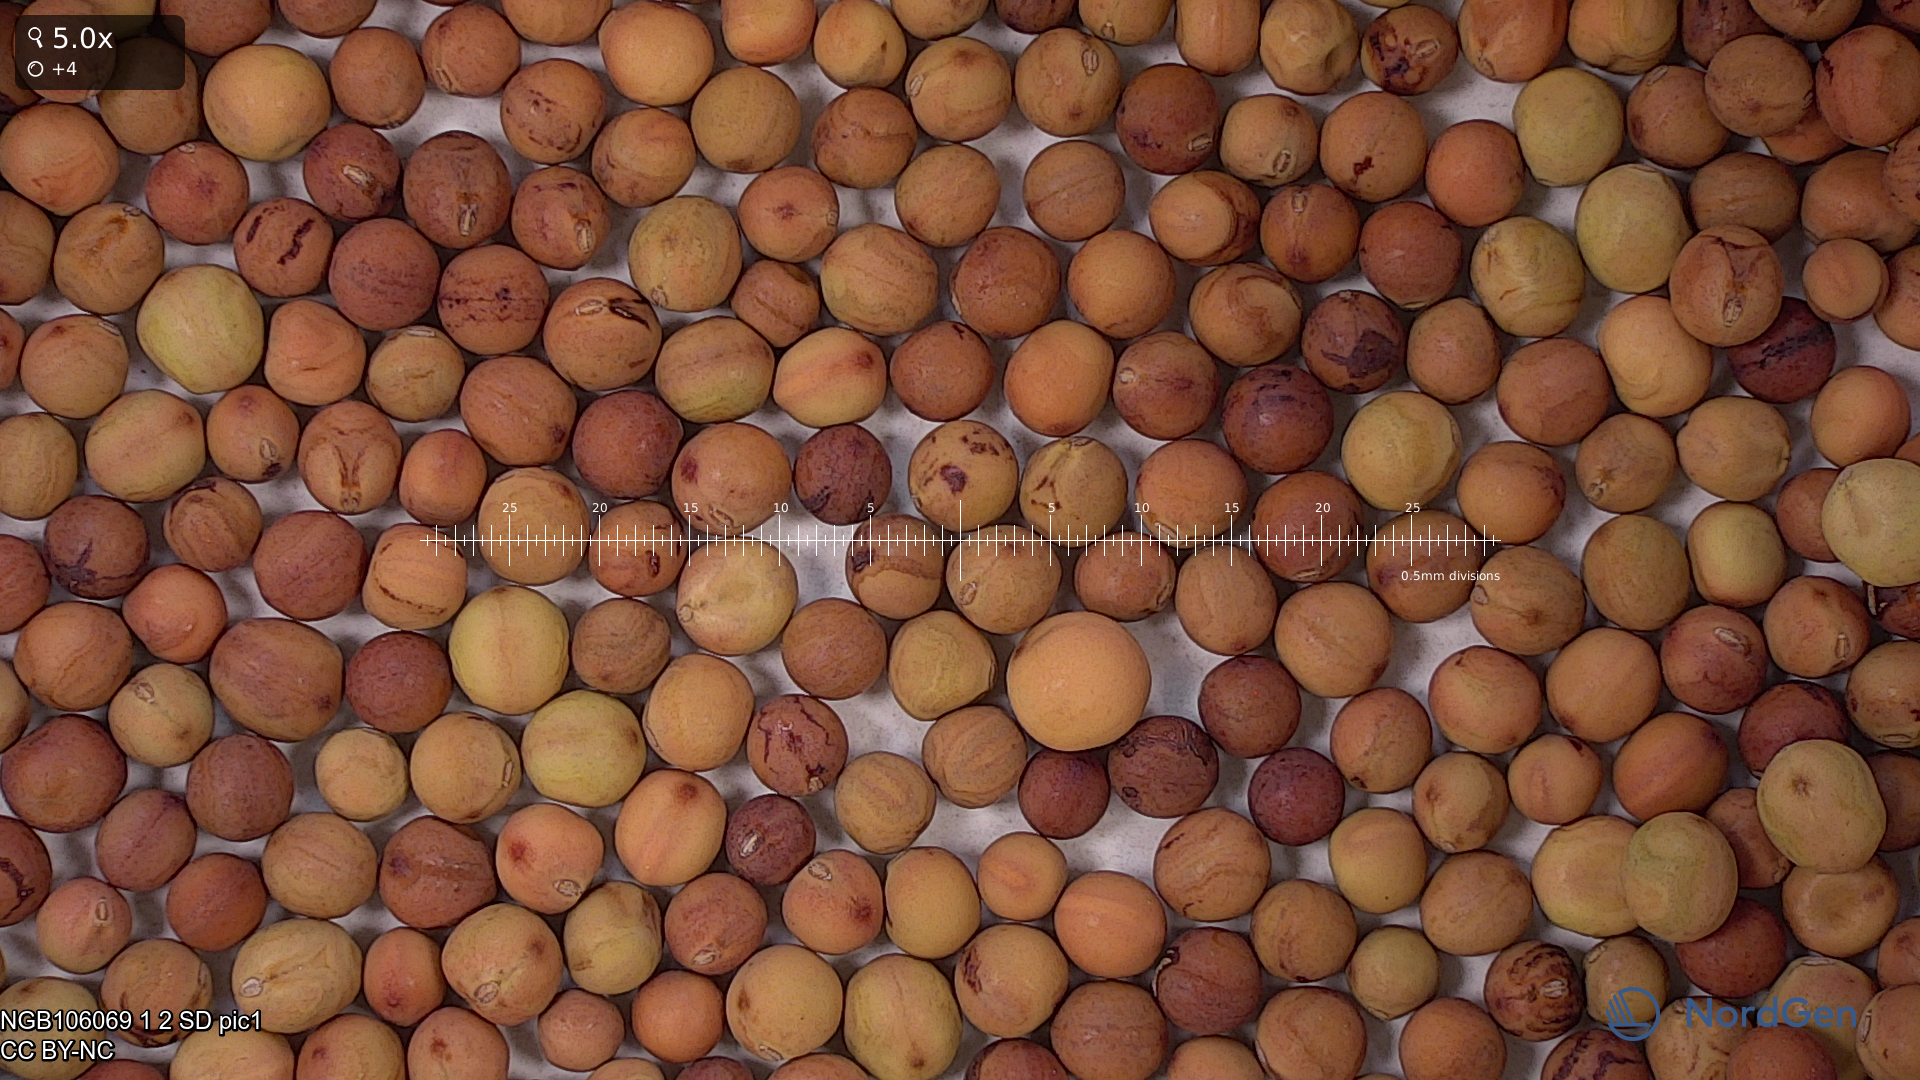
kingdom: Plantae
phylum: Tracheophyta
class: Magnoliopsida
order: Fabales
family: Fabaceae
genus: Lathyrus
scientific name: Lathyrus oleraceus
